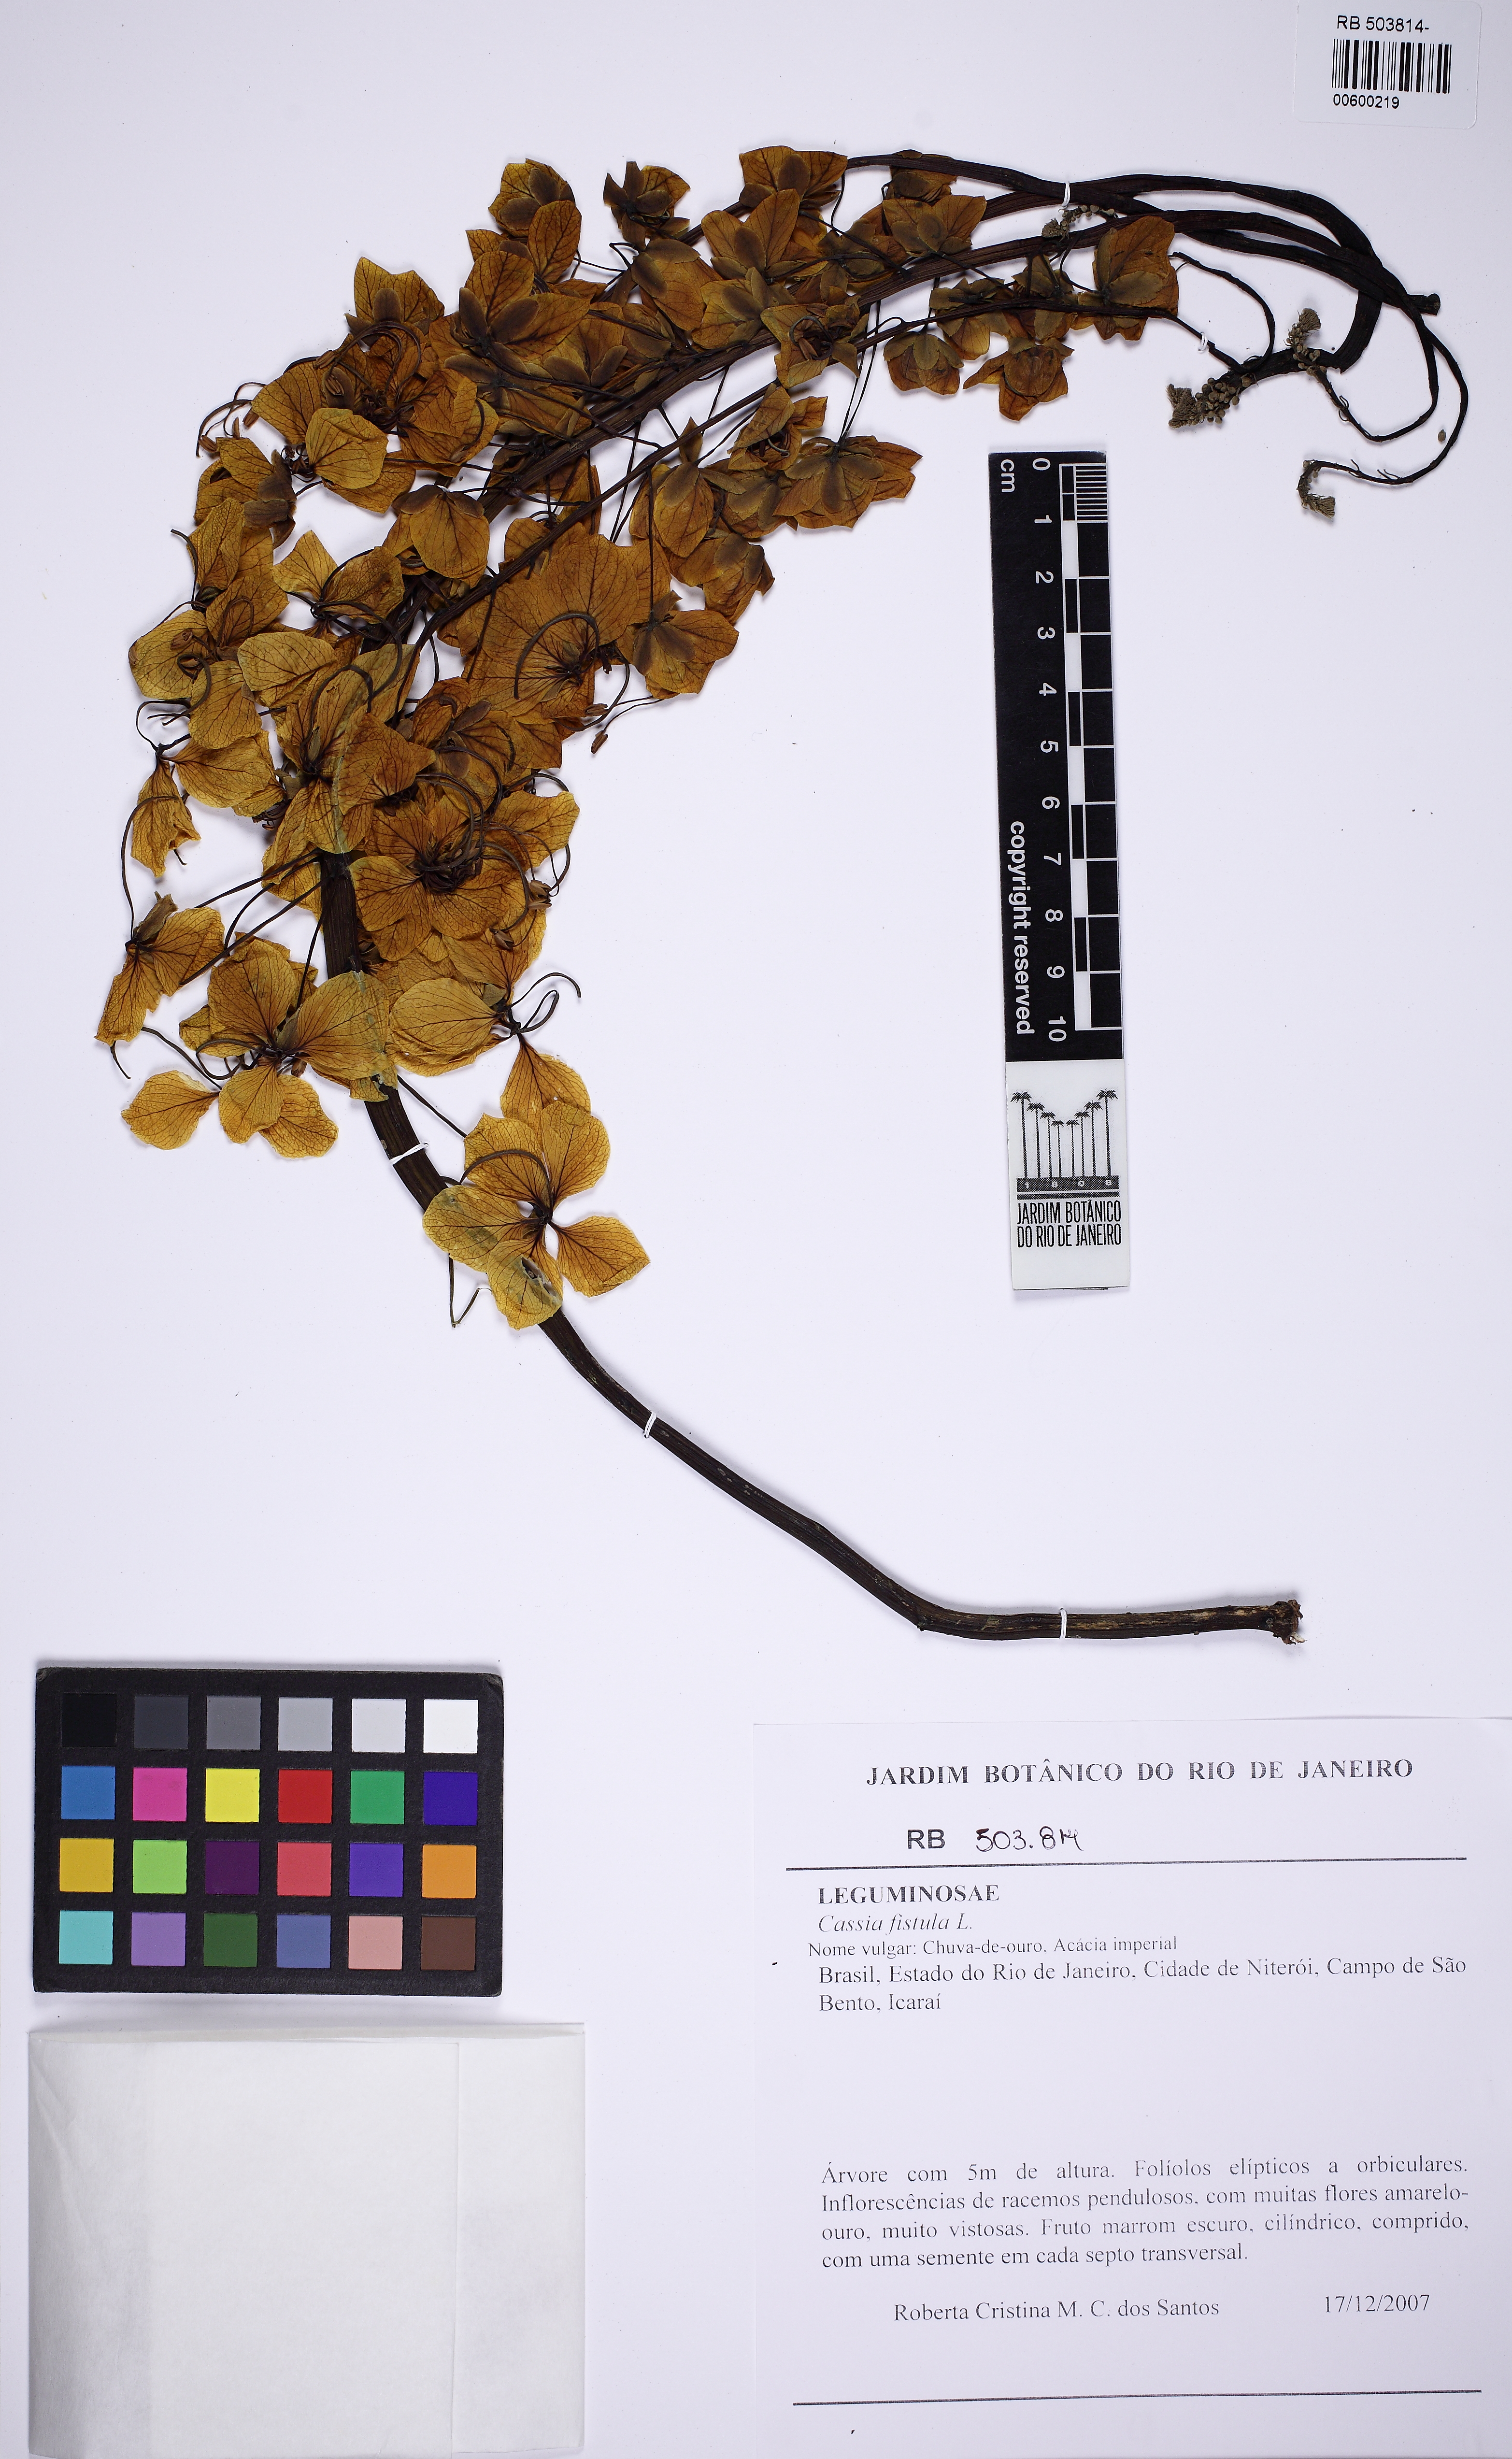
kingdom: Plantae
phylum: Tracheophyta
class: Magnoliopsida
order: Fabales
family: Fabaceae
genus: Cassia
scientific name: Cassia fistula
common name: Golden shower
